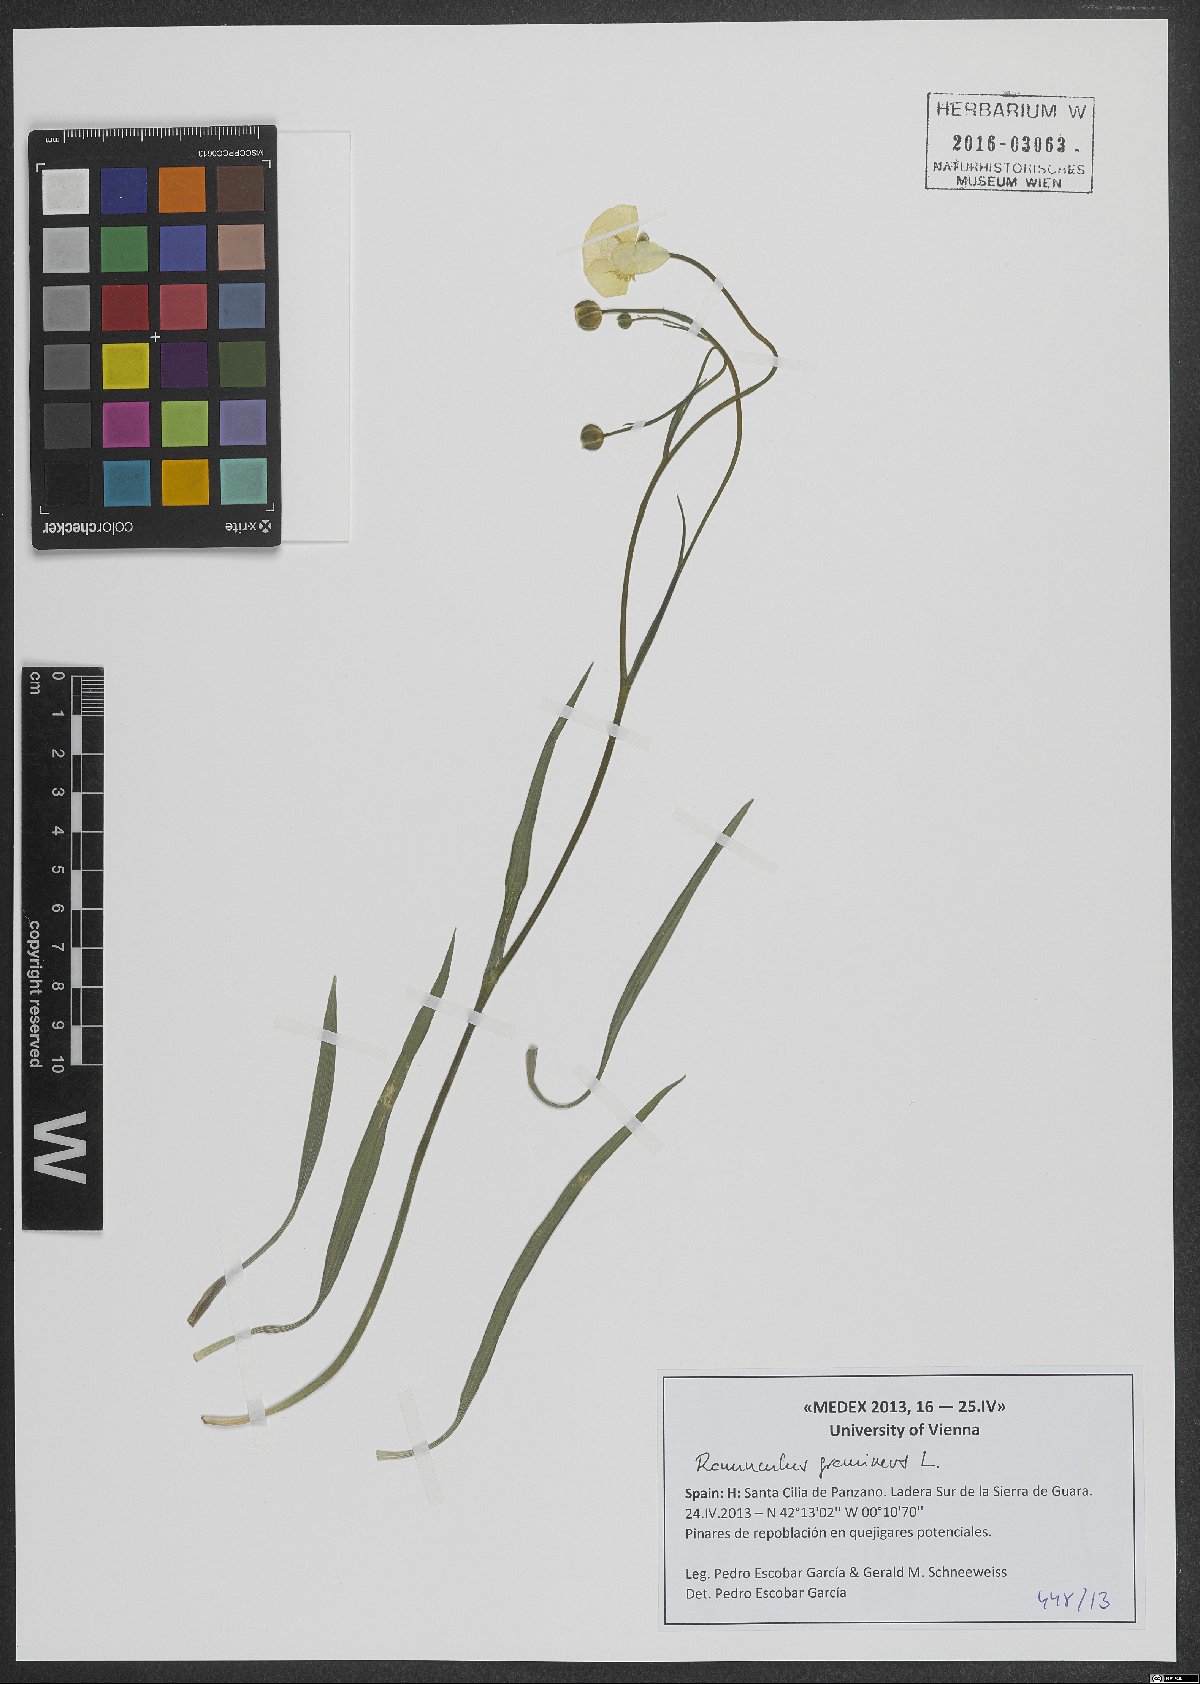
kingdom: Plantae
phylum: Tracheophyta
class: Magnoliopsida
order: Ranunculales
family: Ranunculaceae
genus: Ranunculus
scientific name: Ranunculus gramineus
